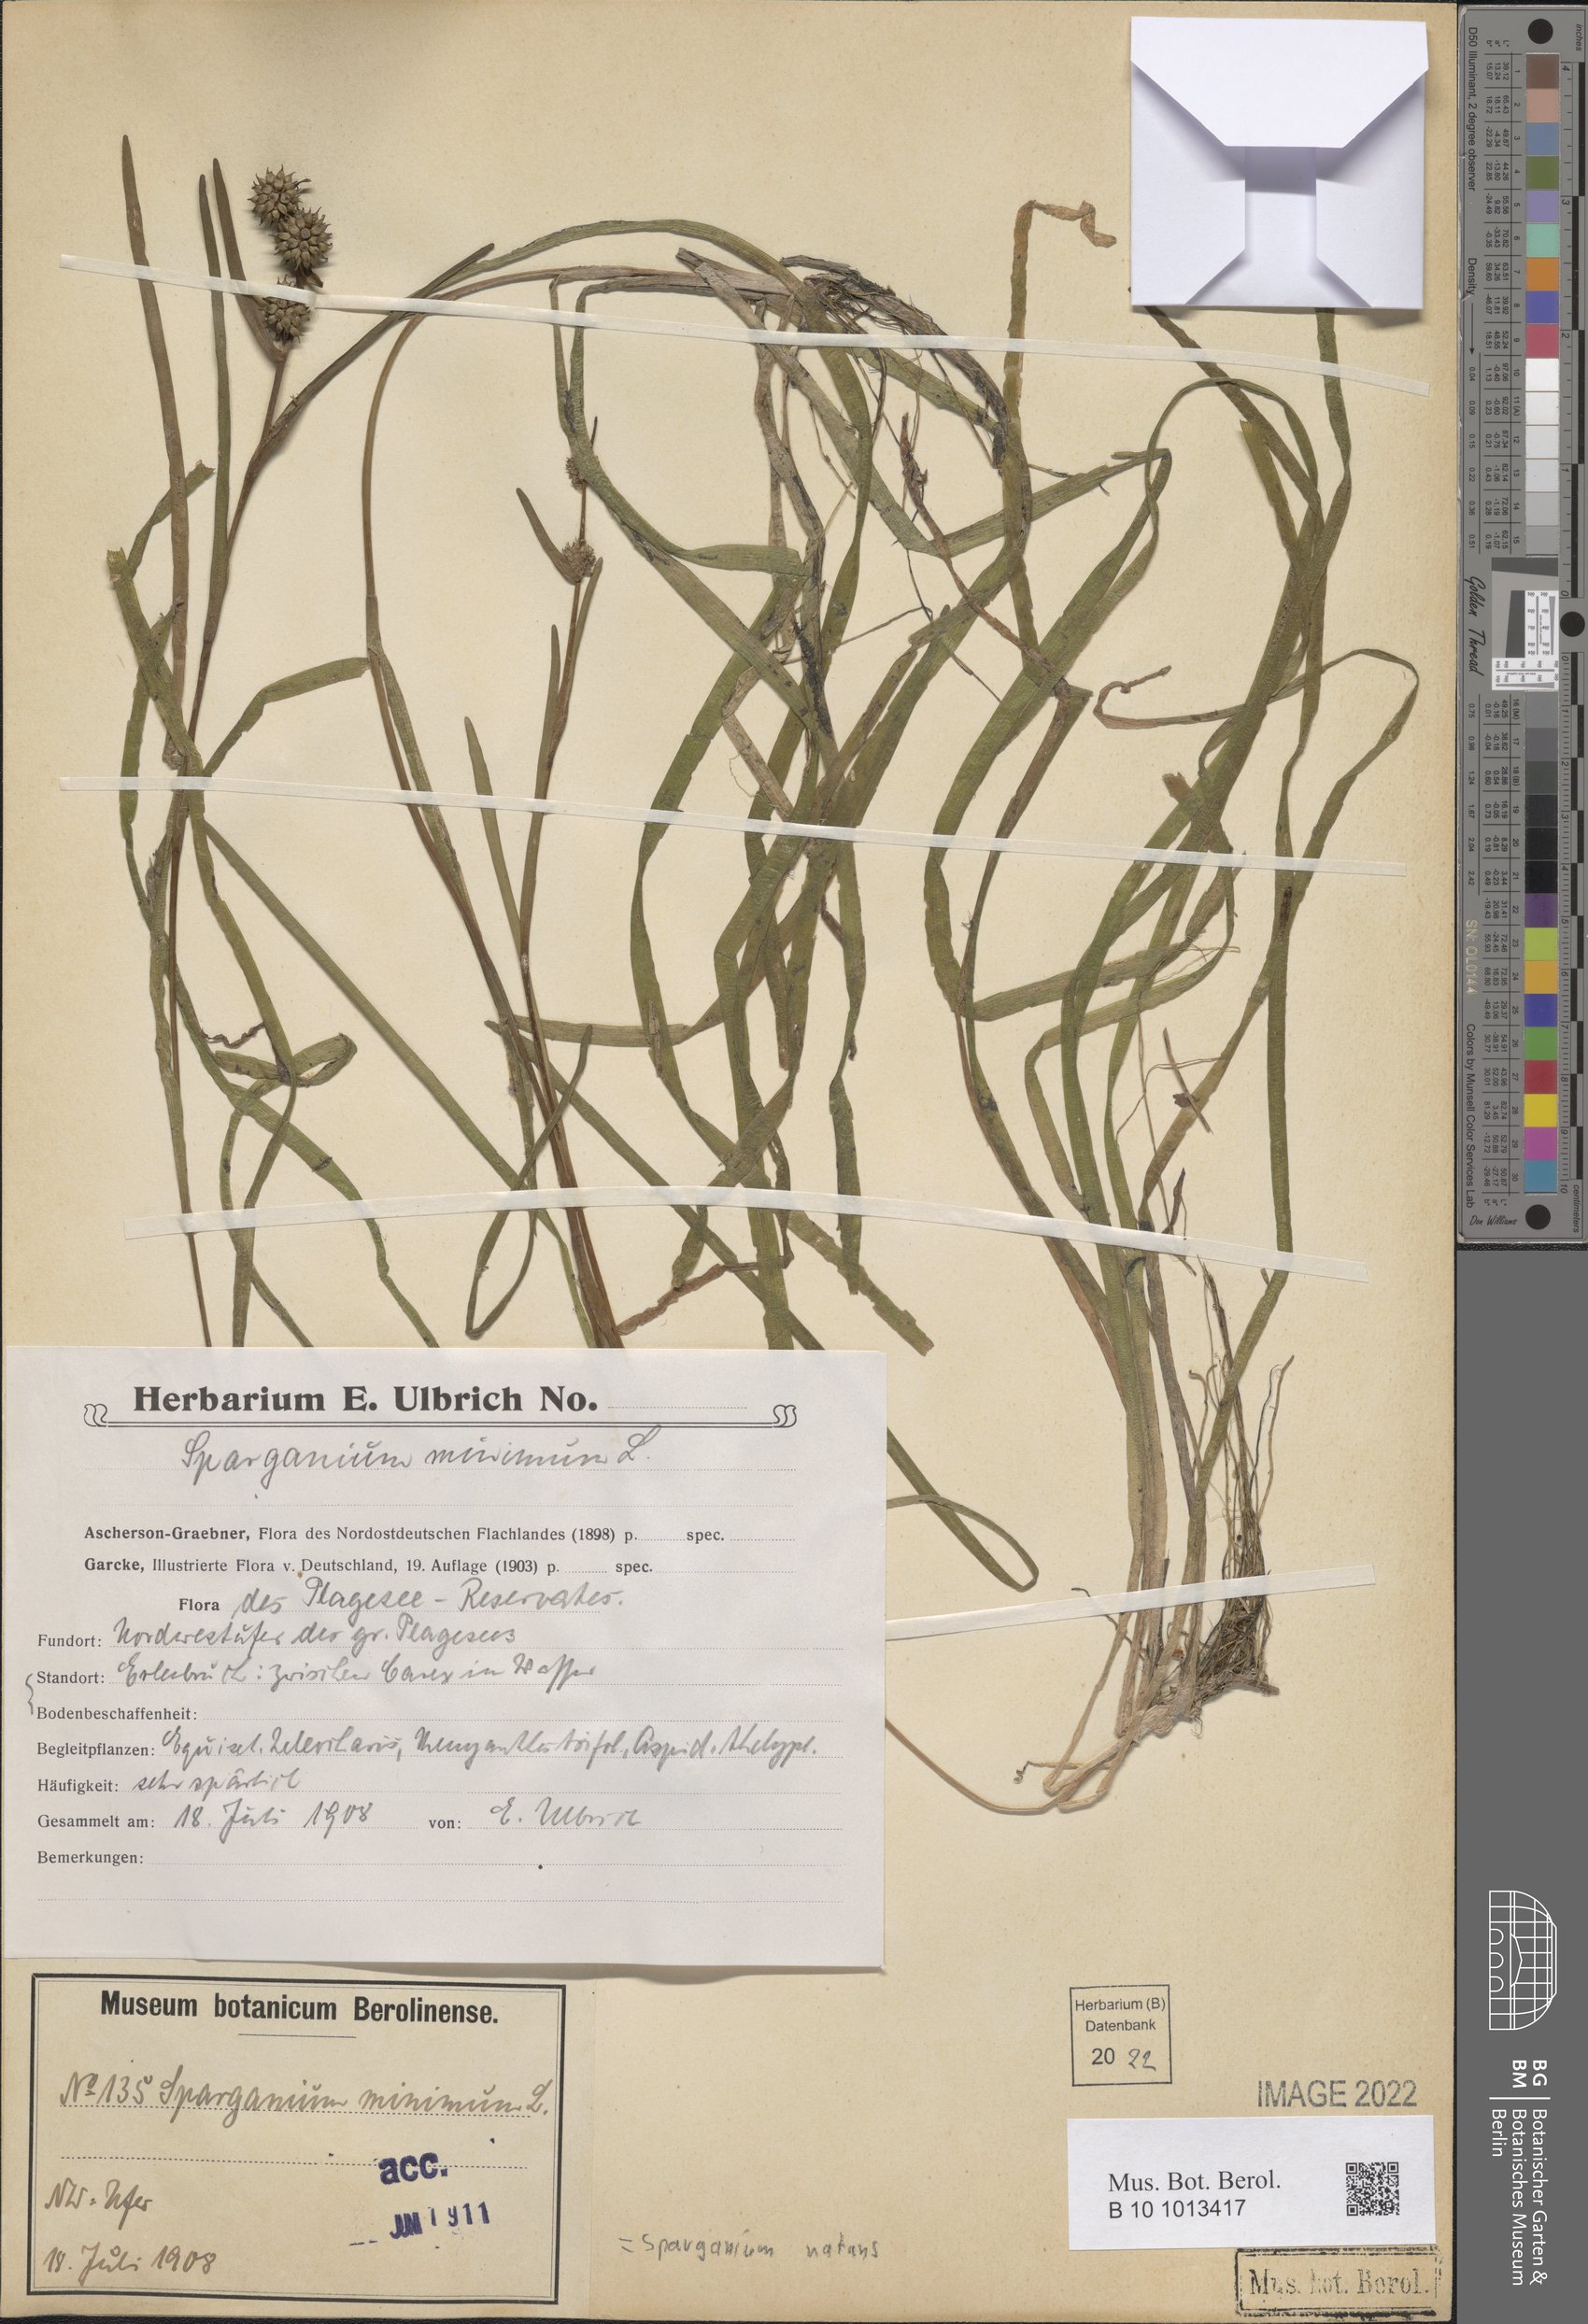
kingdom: Plantae
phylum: Tracheophyta
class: Liliopsida
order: Poales
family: Typhaceae
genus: Sparganium
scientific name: Sparganium natans
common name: Least bur-reed
